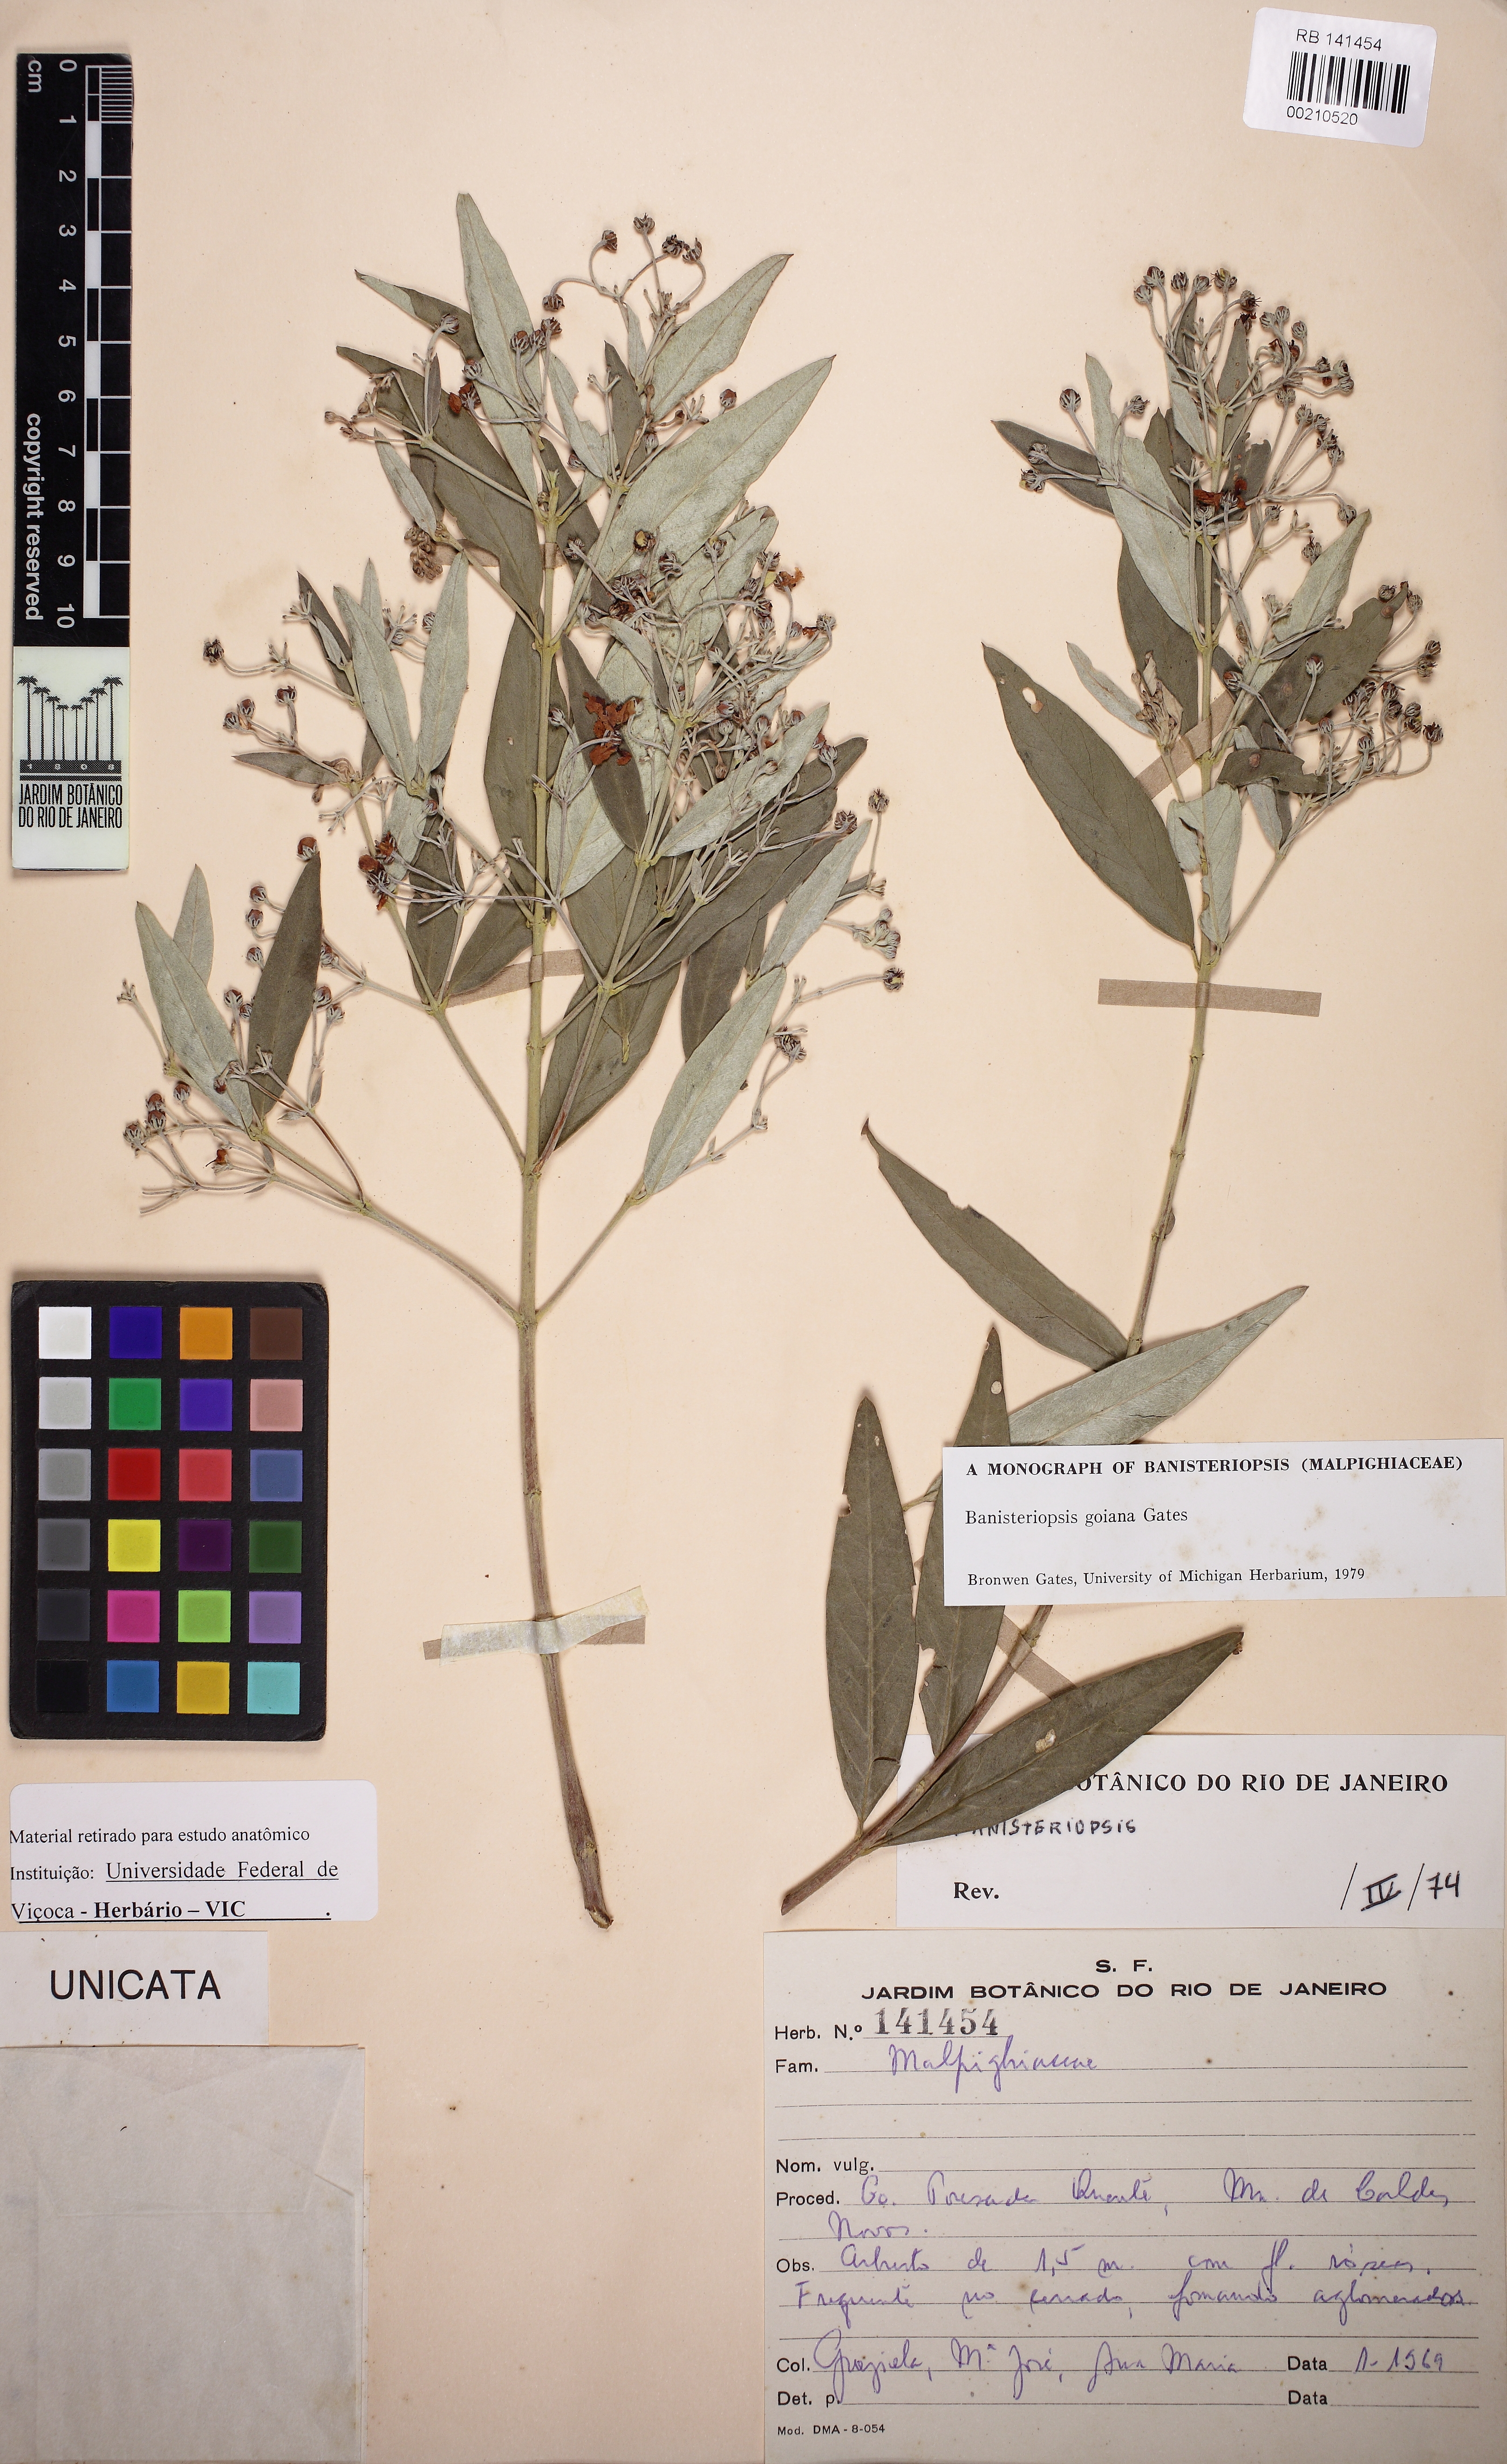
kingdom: Plantae
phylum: Tracheophyta
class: Magnoliopsida
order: Malpighiales
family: Malpighiaceae
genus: Banisteriopsis
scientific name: Banisteriopsis goiana
